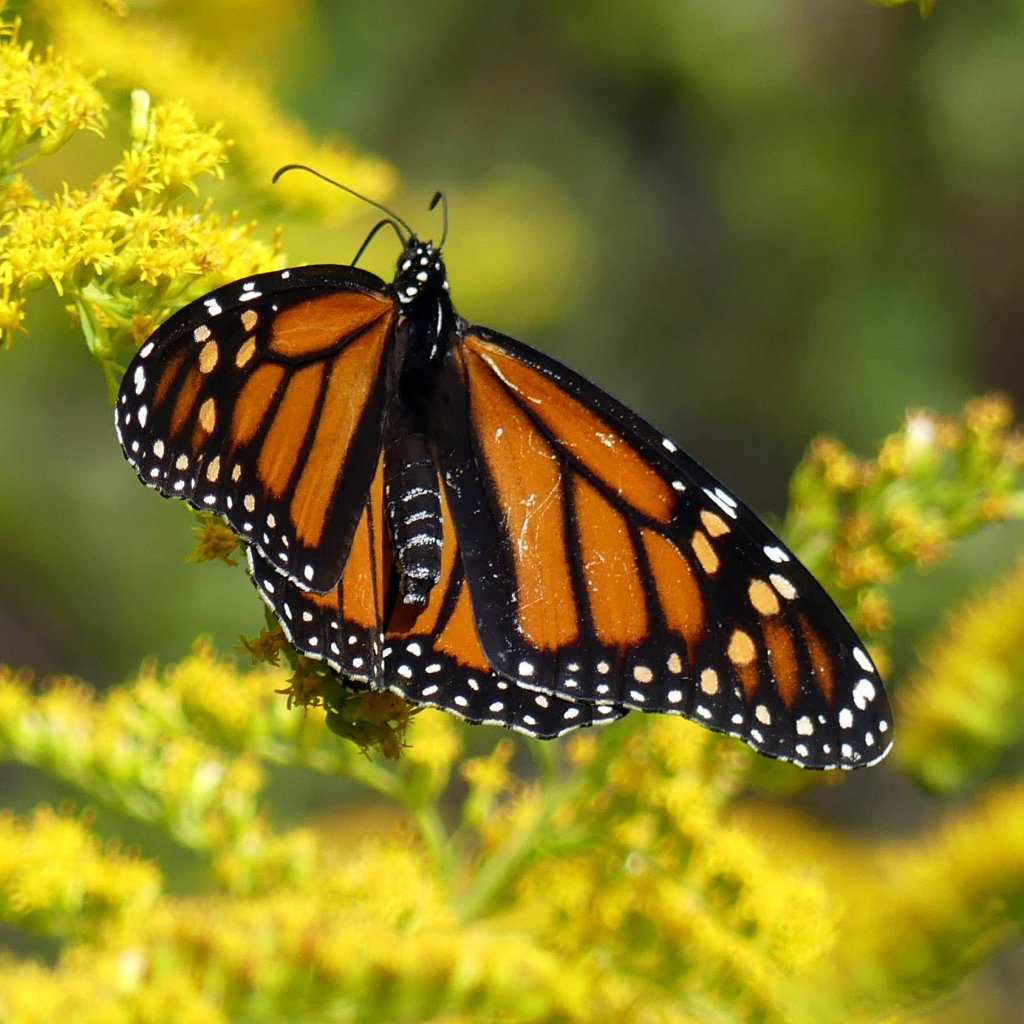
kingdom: Animalia
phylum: Arthropoda
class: Insecta
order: Lepidoptera
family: Nymphalidae
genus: Danaus
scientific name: Danaus plexippus
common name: Monarch
